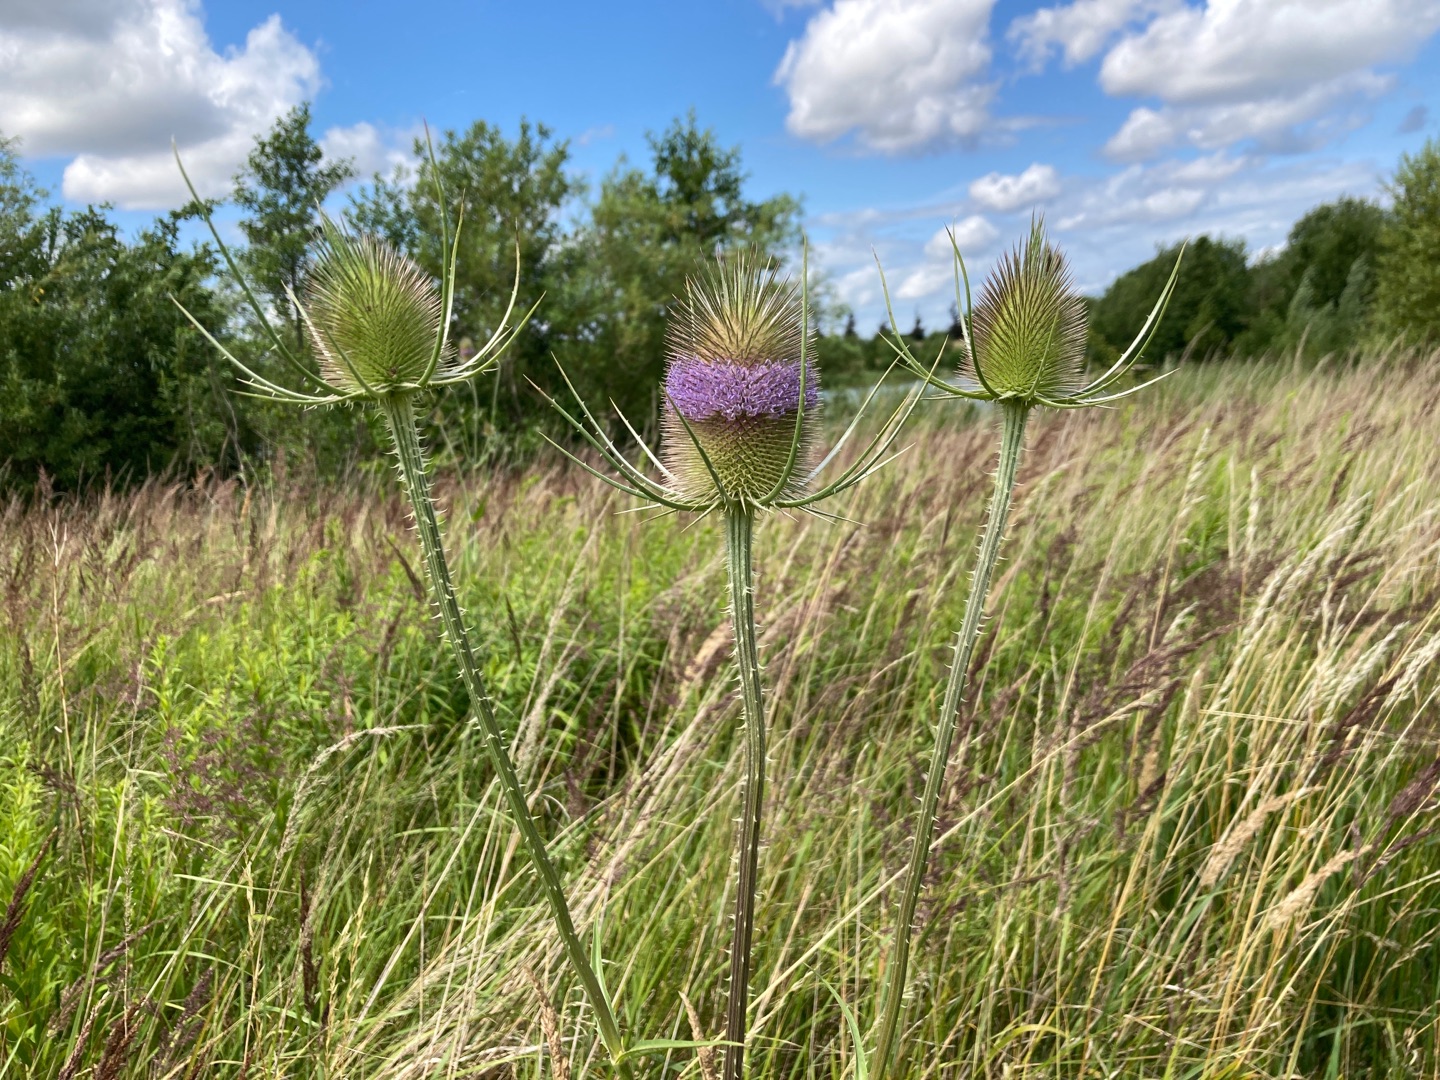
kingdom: Plantae
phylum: Tracheophyta
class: Magnoliopsida
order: Dipsacales
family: Caprifoliaceae
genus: Dipsacus
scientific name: Dipsacus fullonum
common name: Gærde-kartebolle
